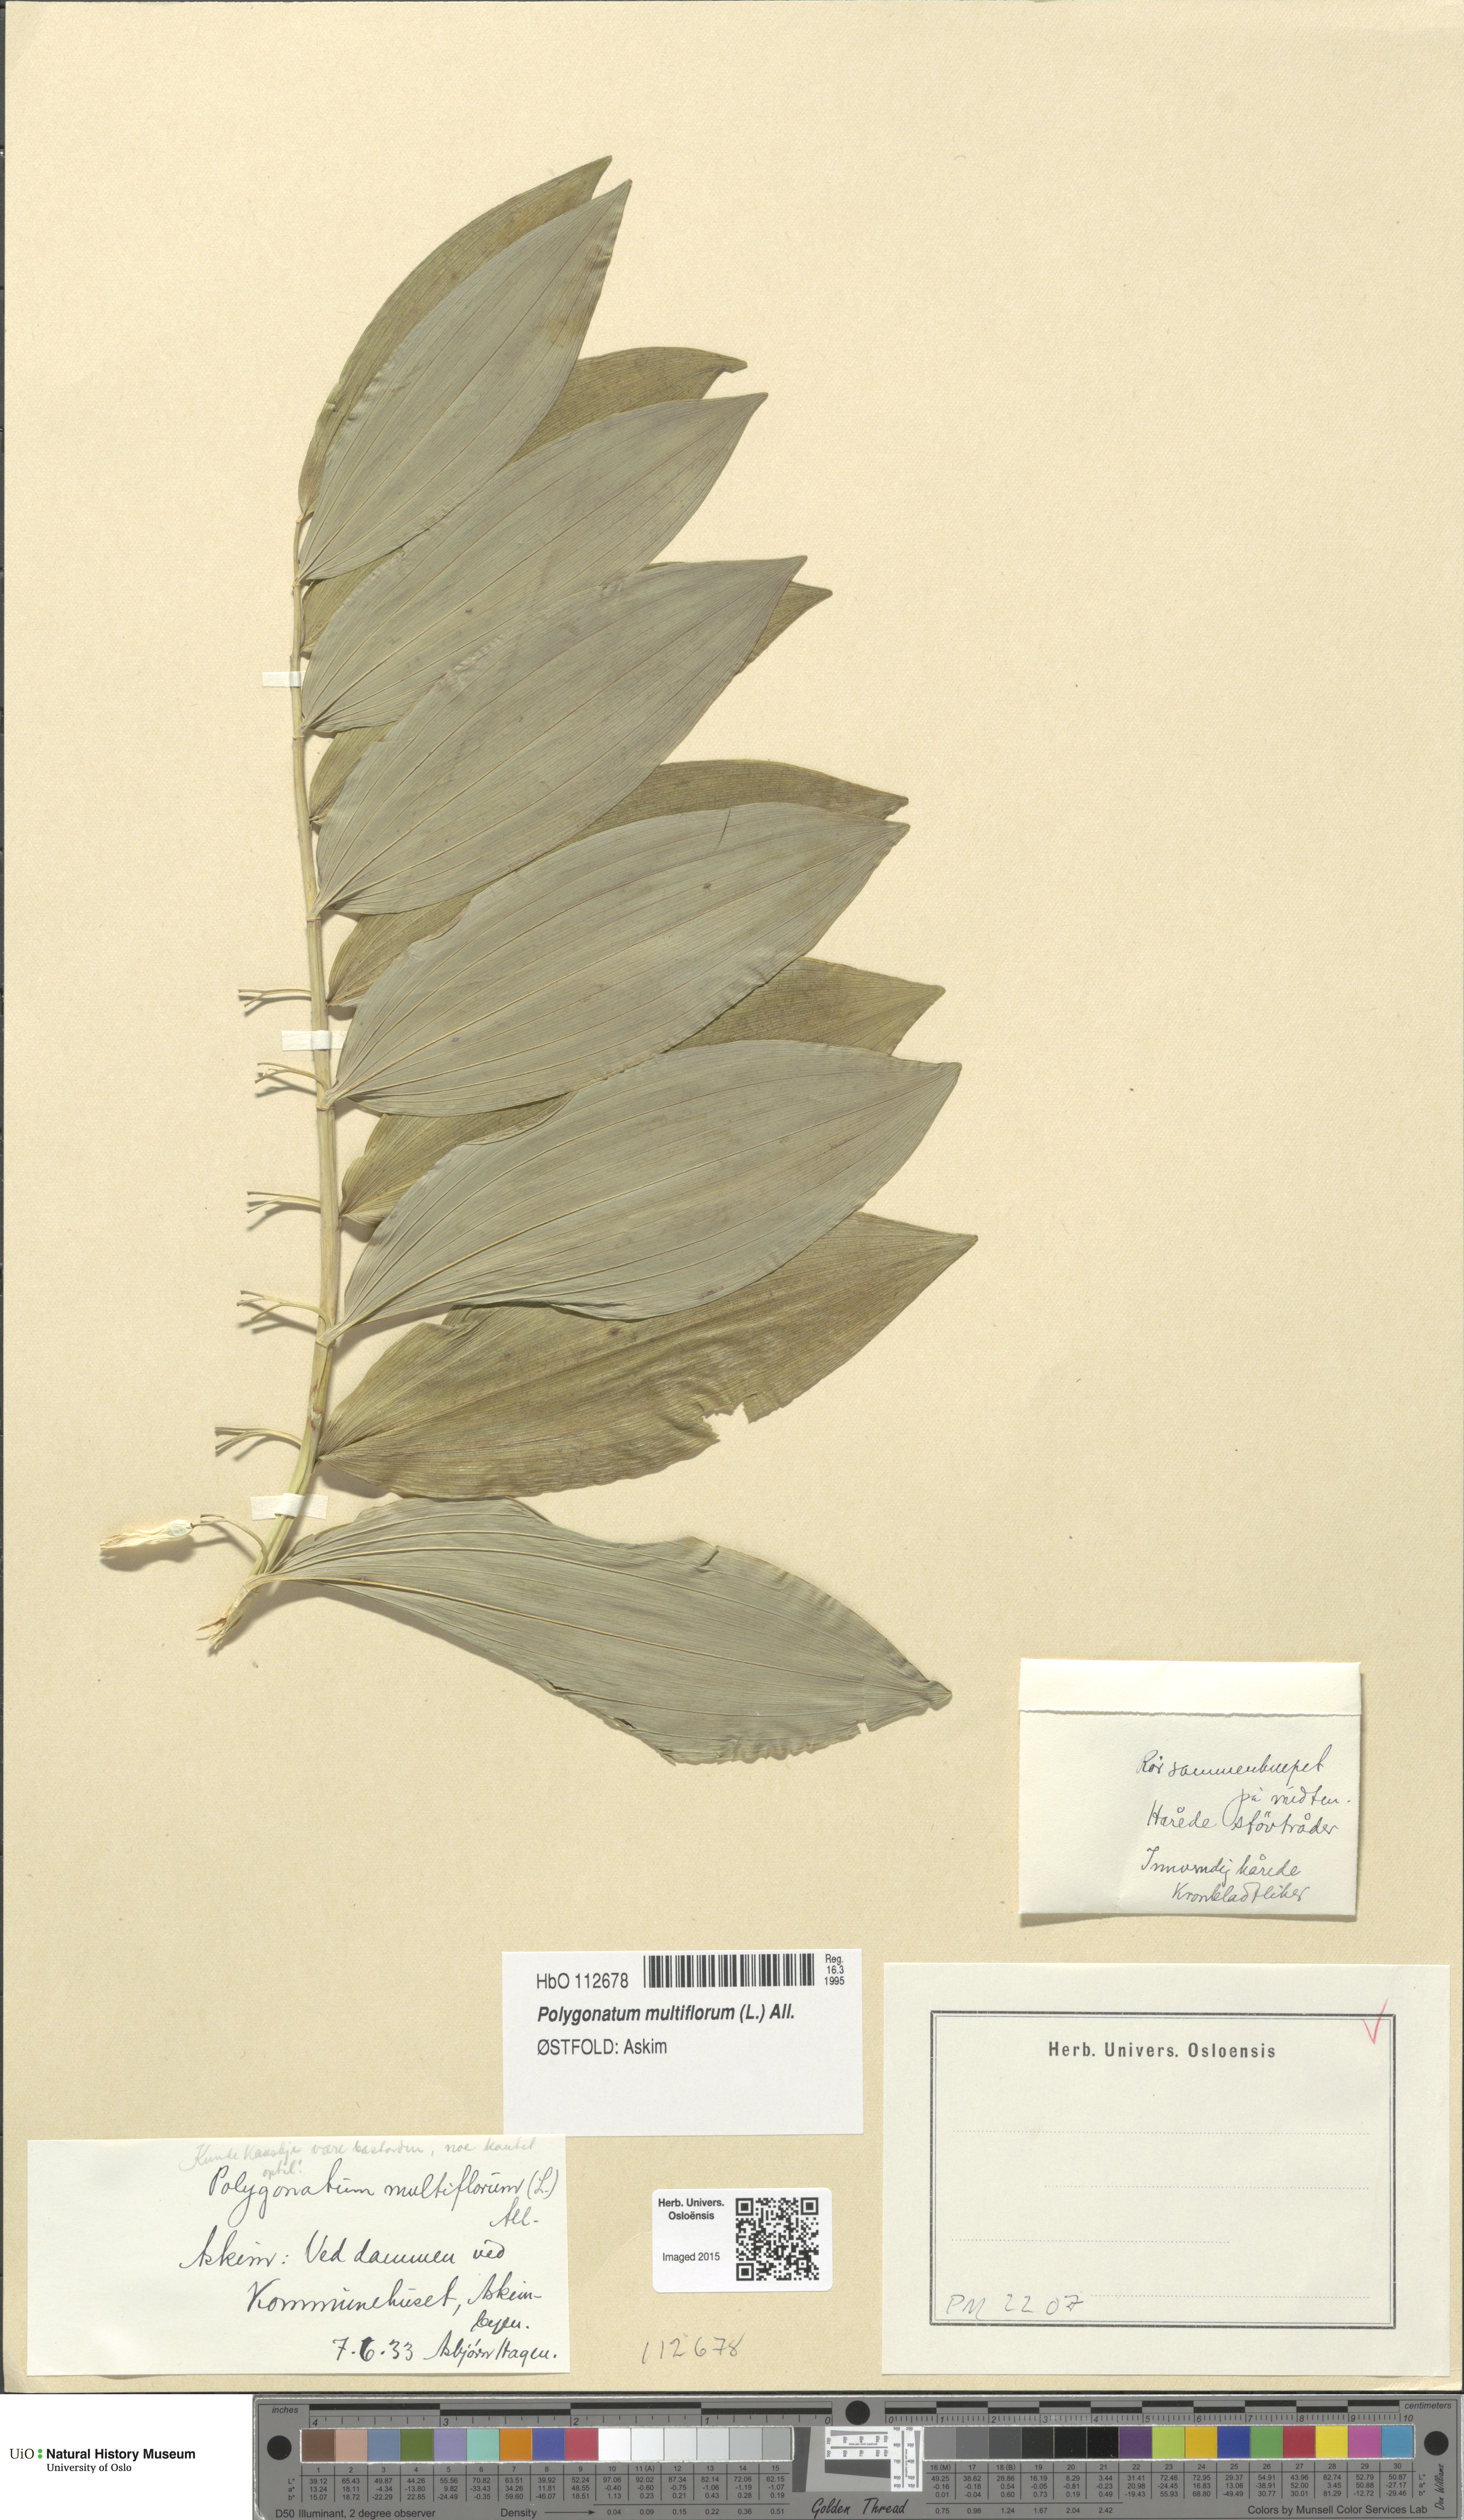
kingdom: Plantae
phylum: Tracheophyta
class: Liliopsida
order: Asparagales
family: Asparagaceae
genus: Polygonatum
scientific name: Polygonatum multiflorum
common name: Solomon's-seal
